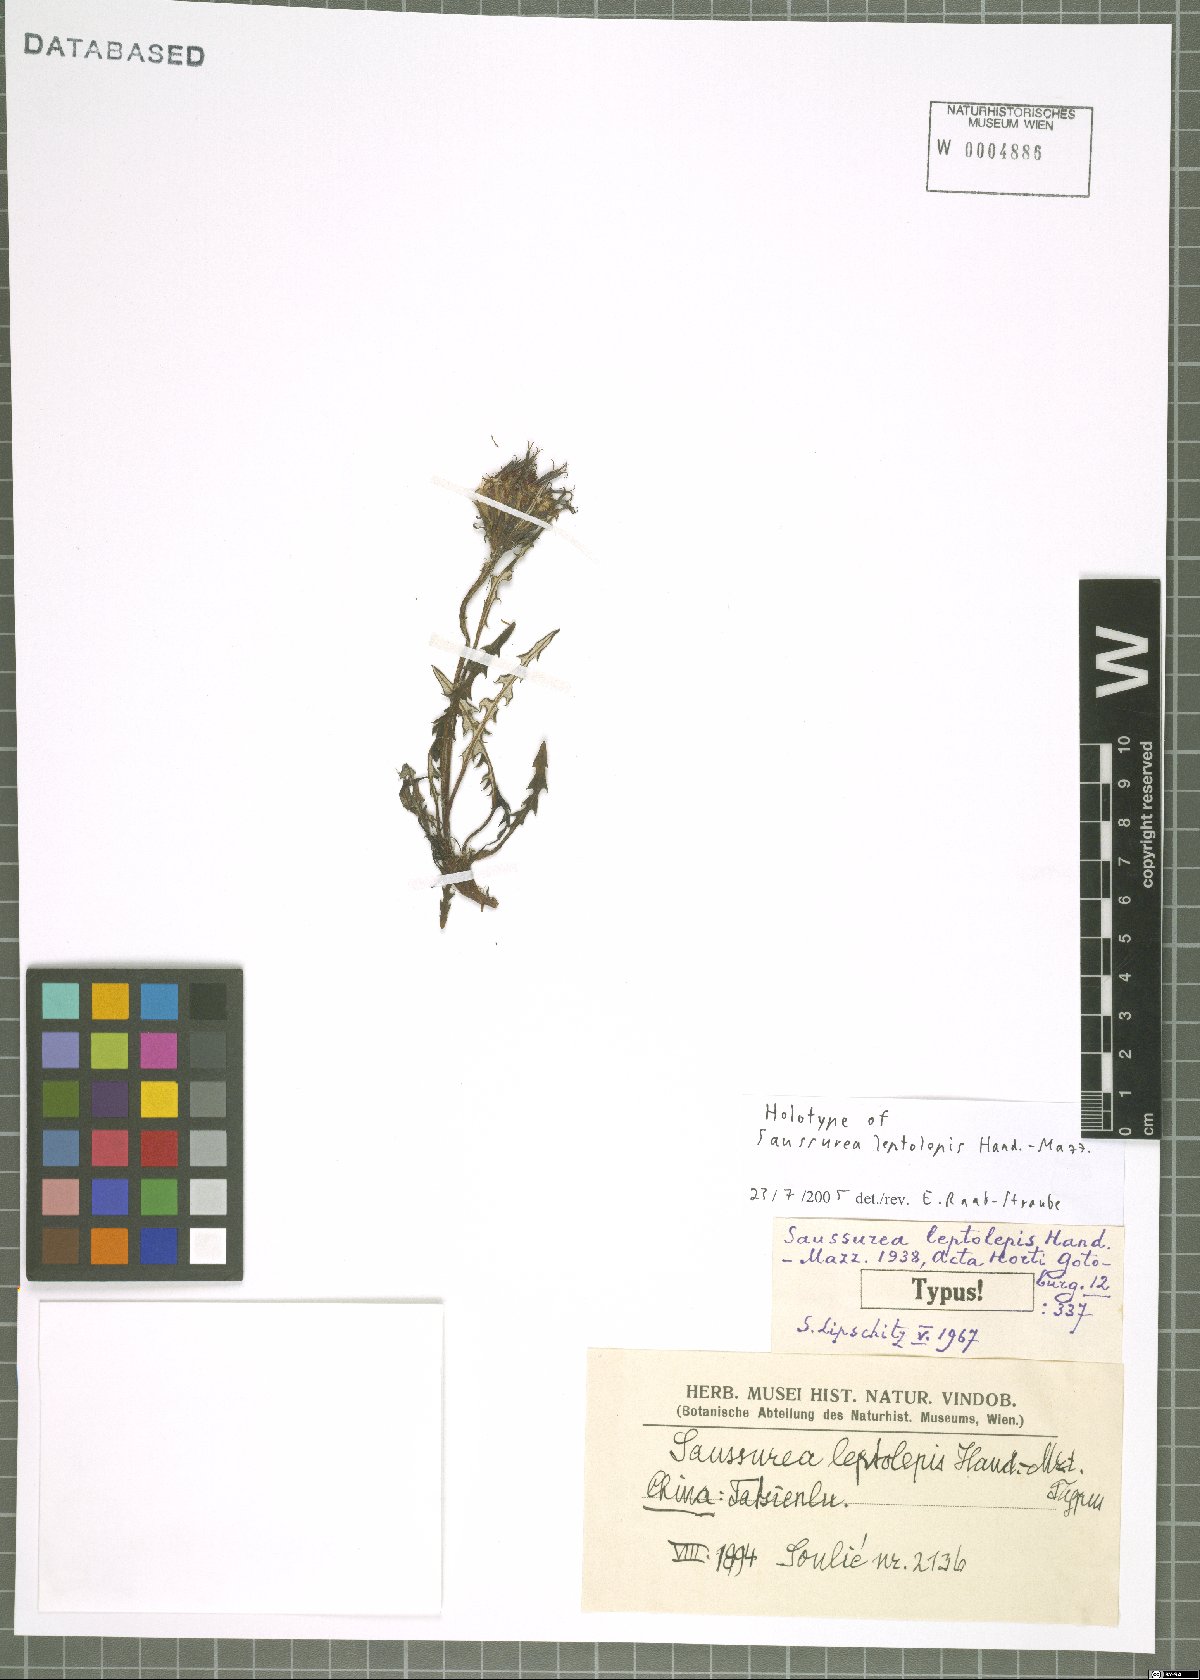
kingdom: Plantae
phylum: Tracheophyta
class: Magnoliopsida
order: Asterales
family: Asteraceae
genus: Saussurea
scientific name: Saussurea leptolepis
